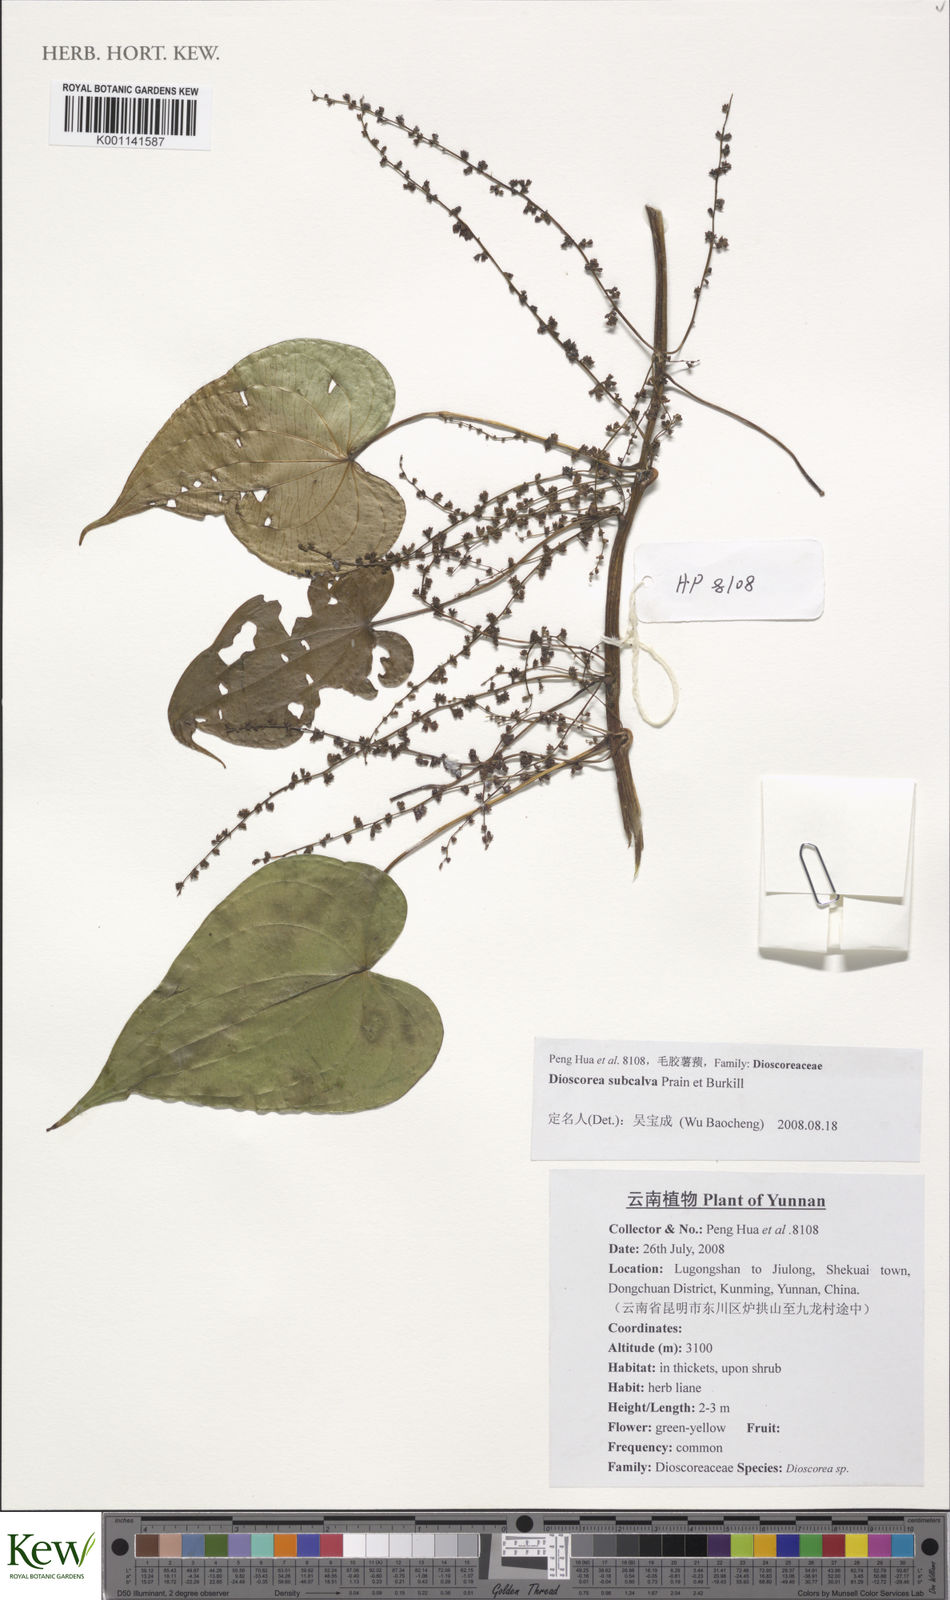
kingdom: Plantae
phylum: Tracheophyta
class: Liliopsida
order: Dioscoreales
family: Dioscoreaceae
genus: Dioscorea
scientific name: Dioscorea subcalva
